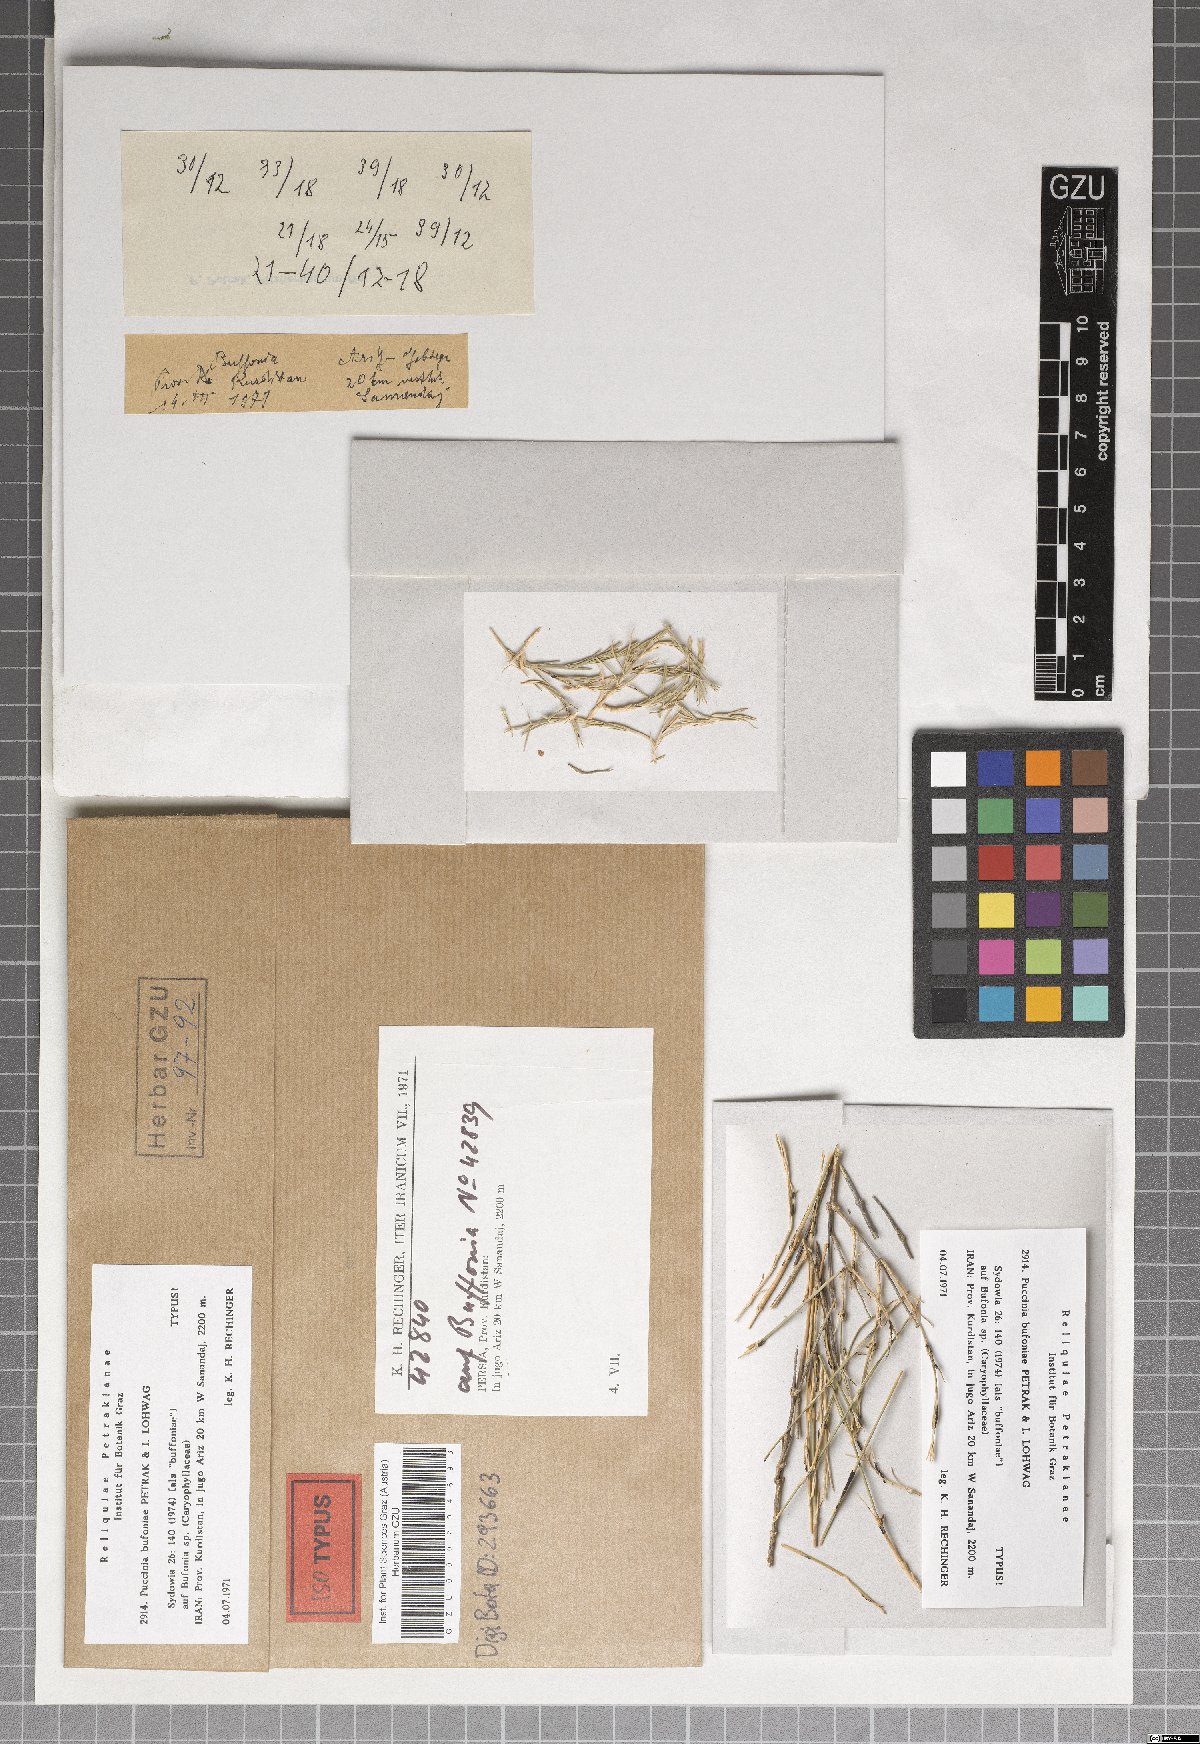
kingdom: Fungi
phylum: Basidiomycota
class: Pucciniomycetes
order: Pucciniales
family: Pucciniaceae
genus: Puccinia
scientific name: Puccinia bufoniae
